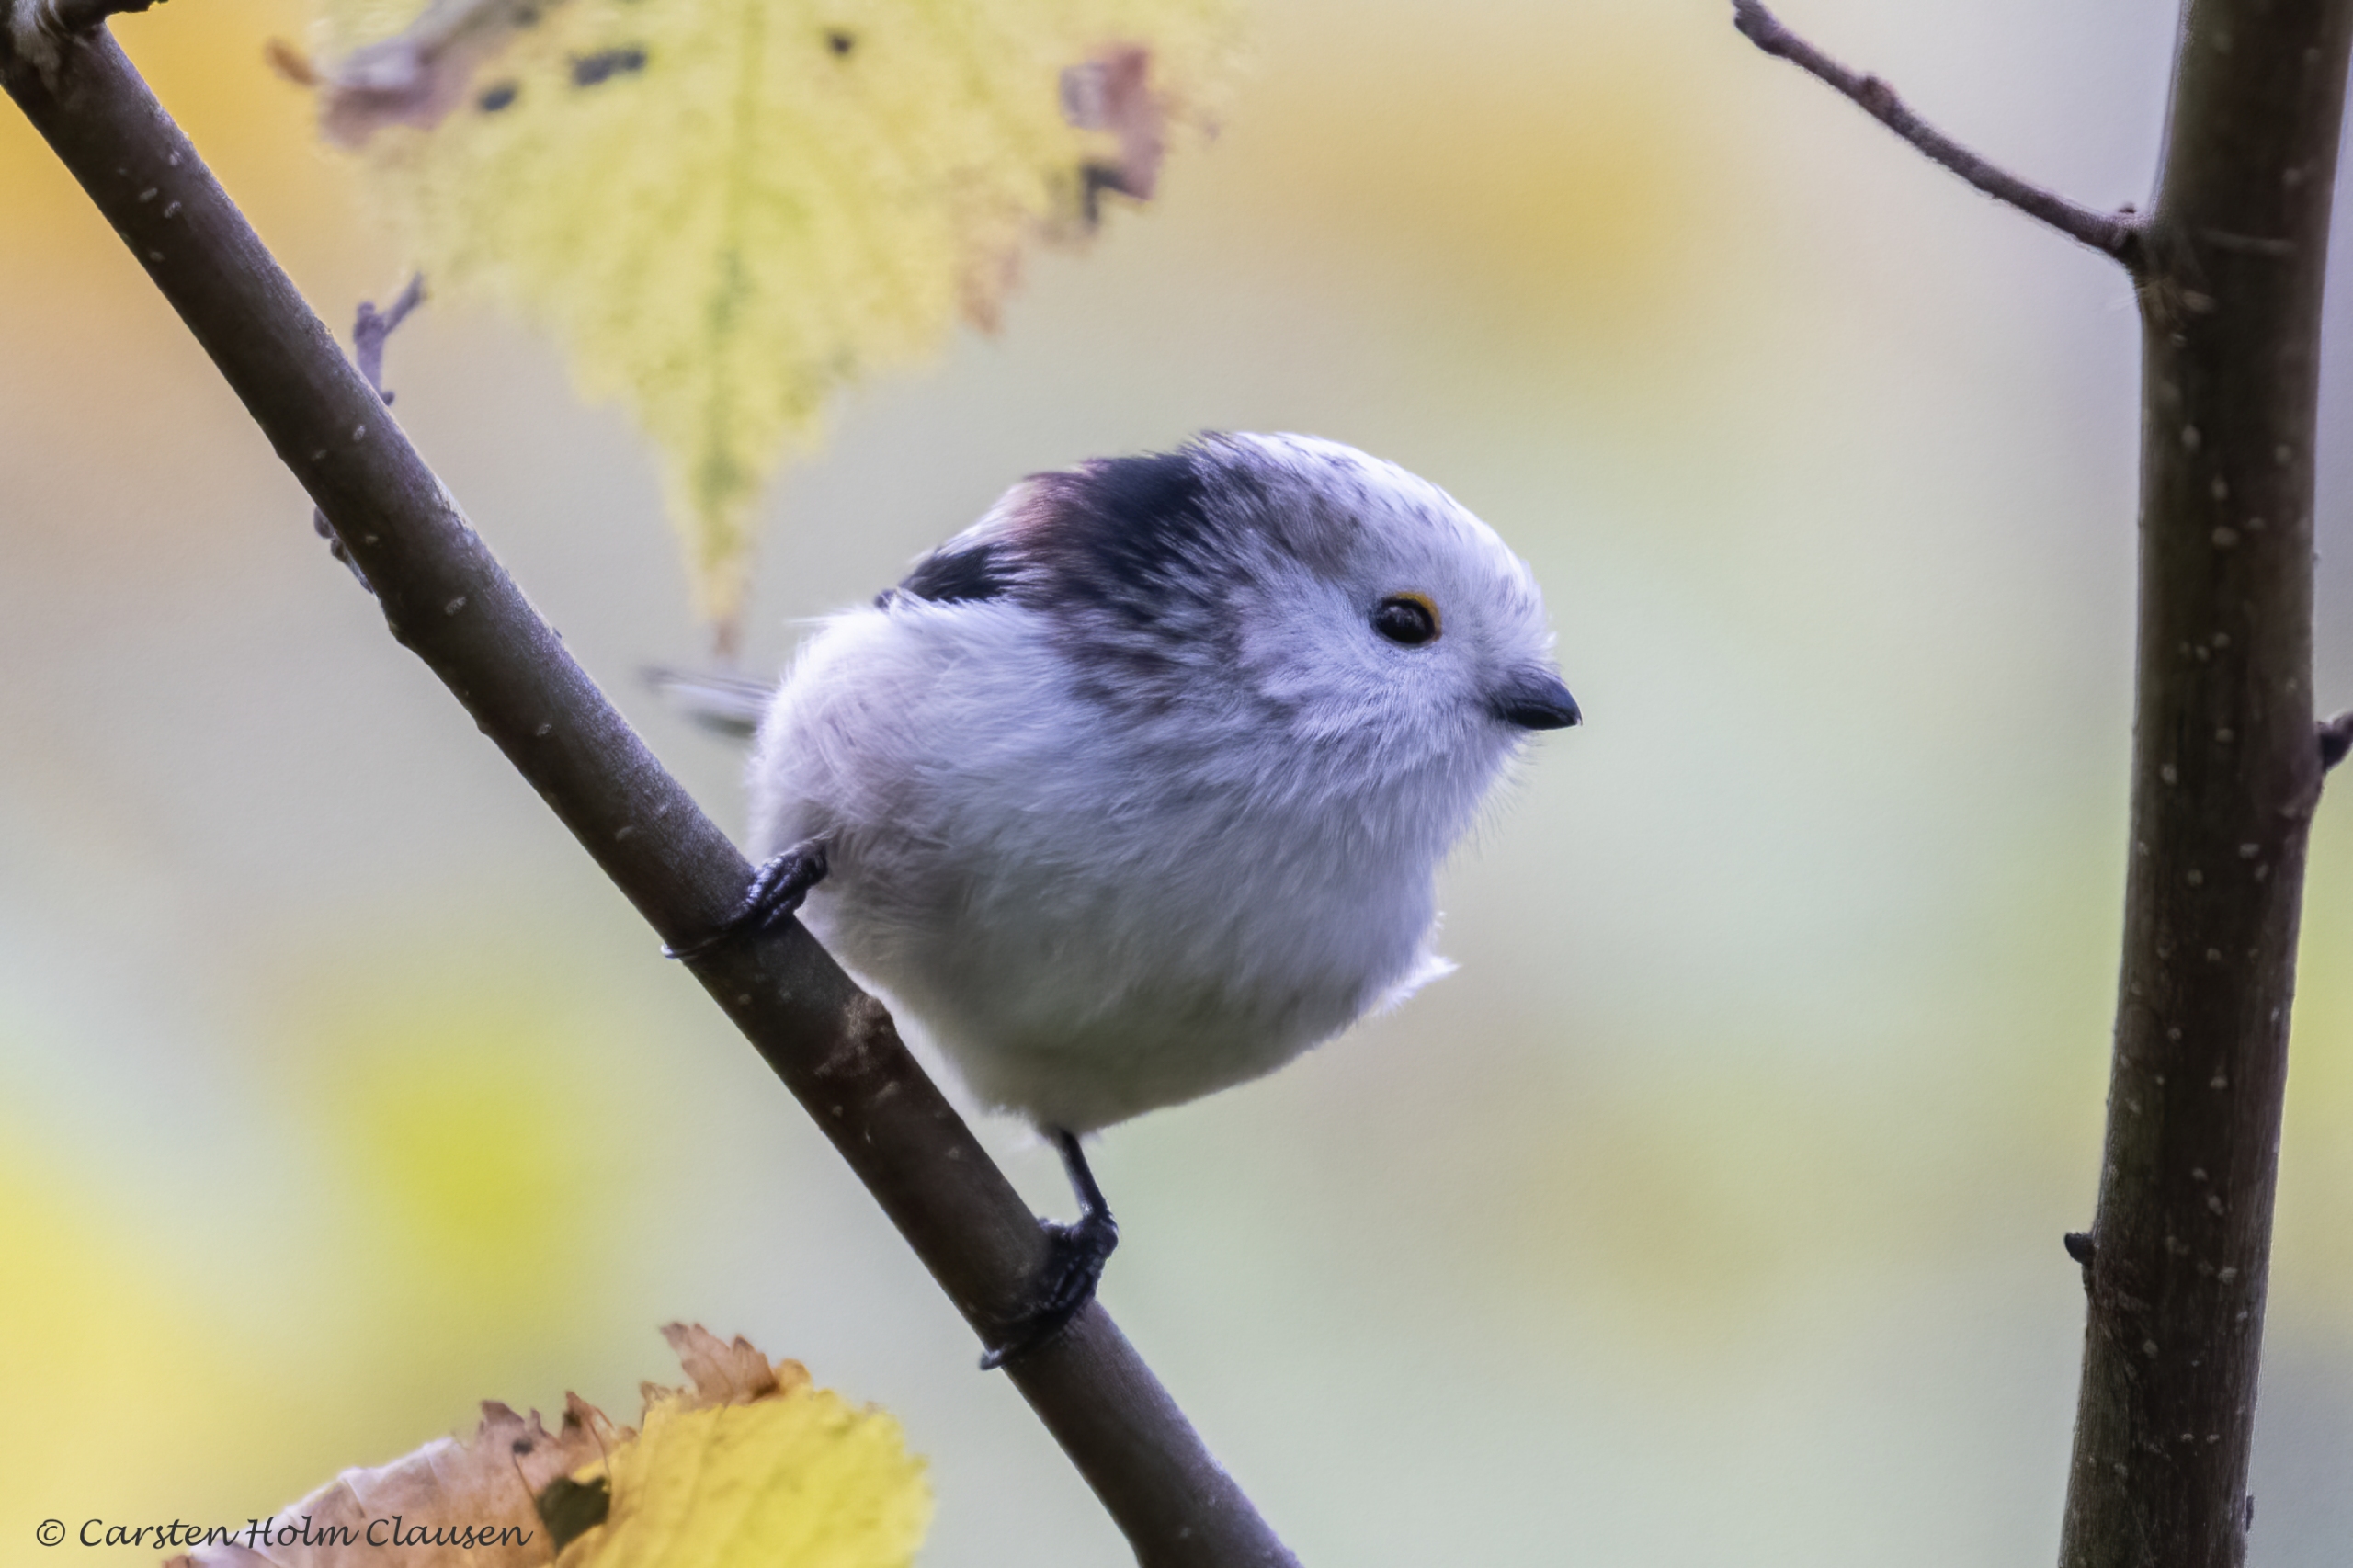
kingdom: Animalia
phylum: Chordata
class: Aves
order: Passeriformes
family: Aegithalidae
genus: Aegithalos
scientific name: Aegithalos caudatus
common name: Halemejse
